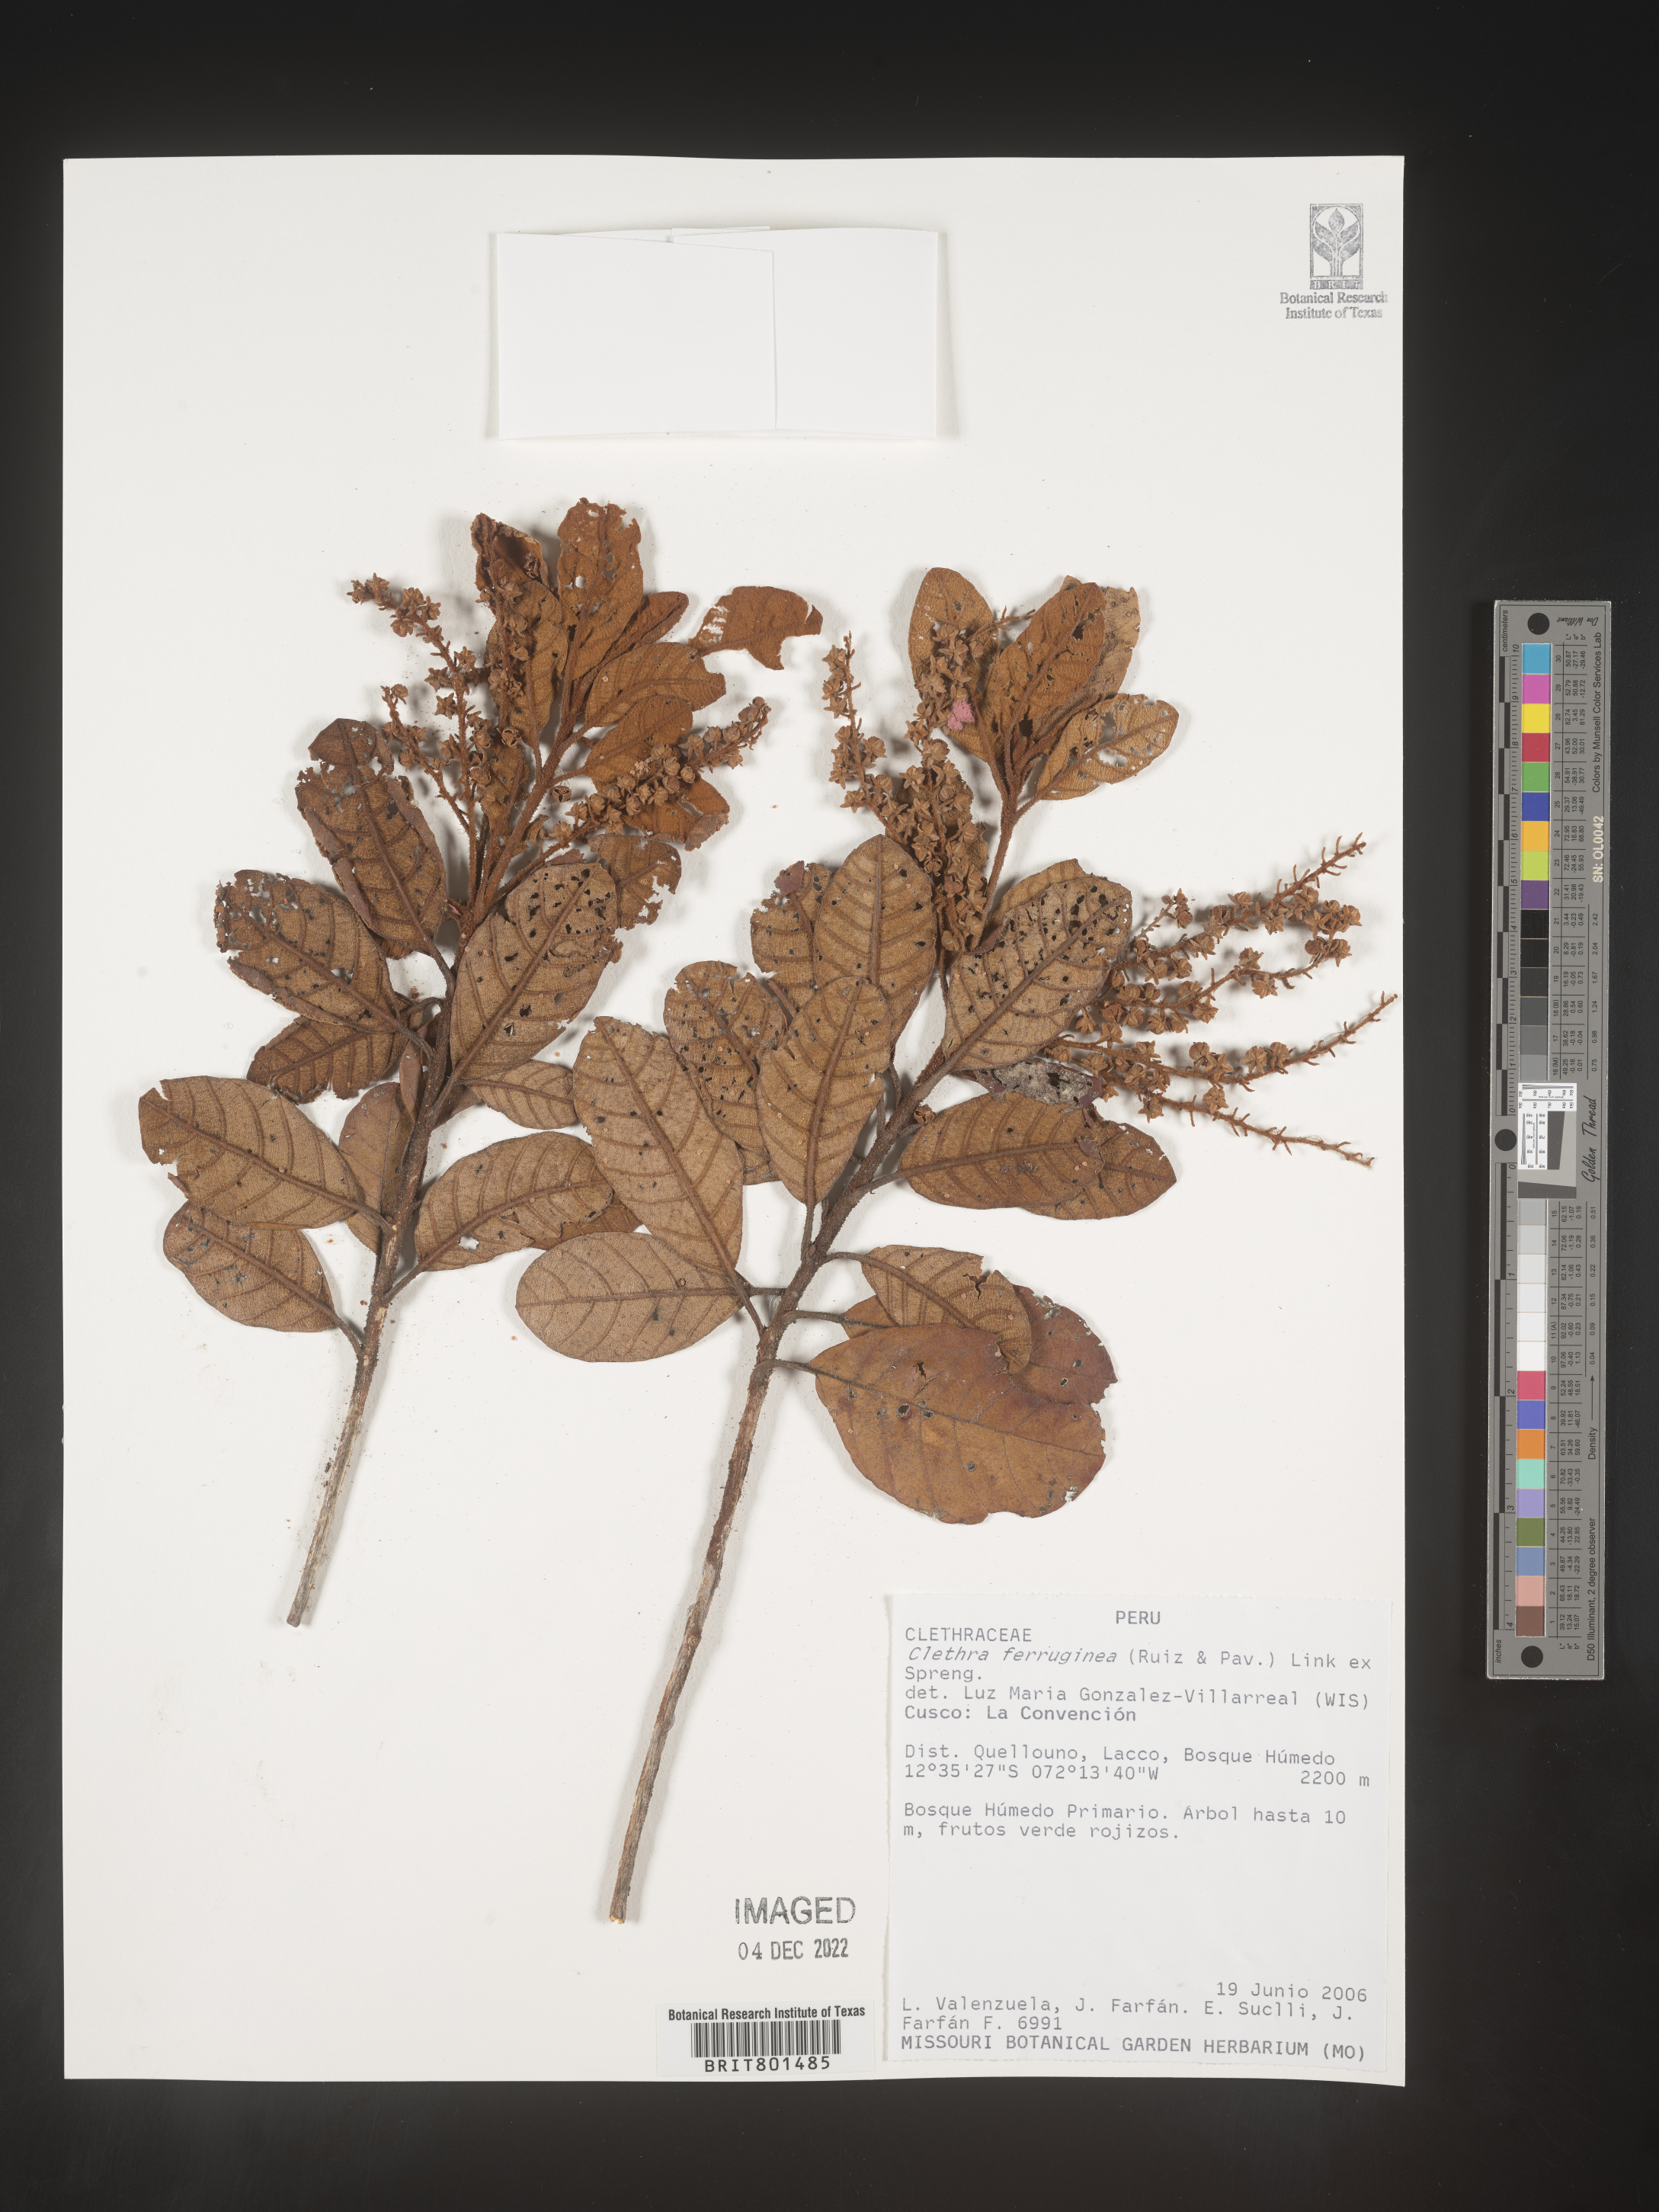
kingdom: Plantae
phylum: Tracheophyta
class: Magnoliopsida
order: Ericales
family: Clethraceae
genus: Clethra
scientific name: Clethra
